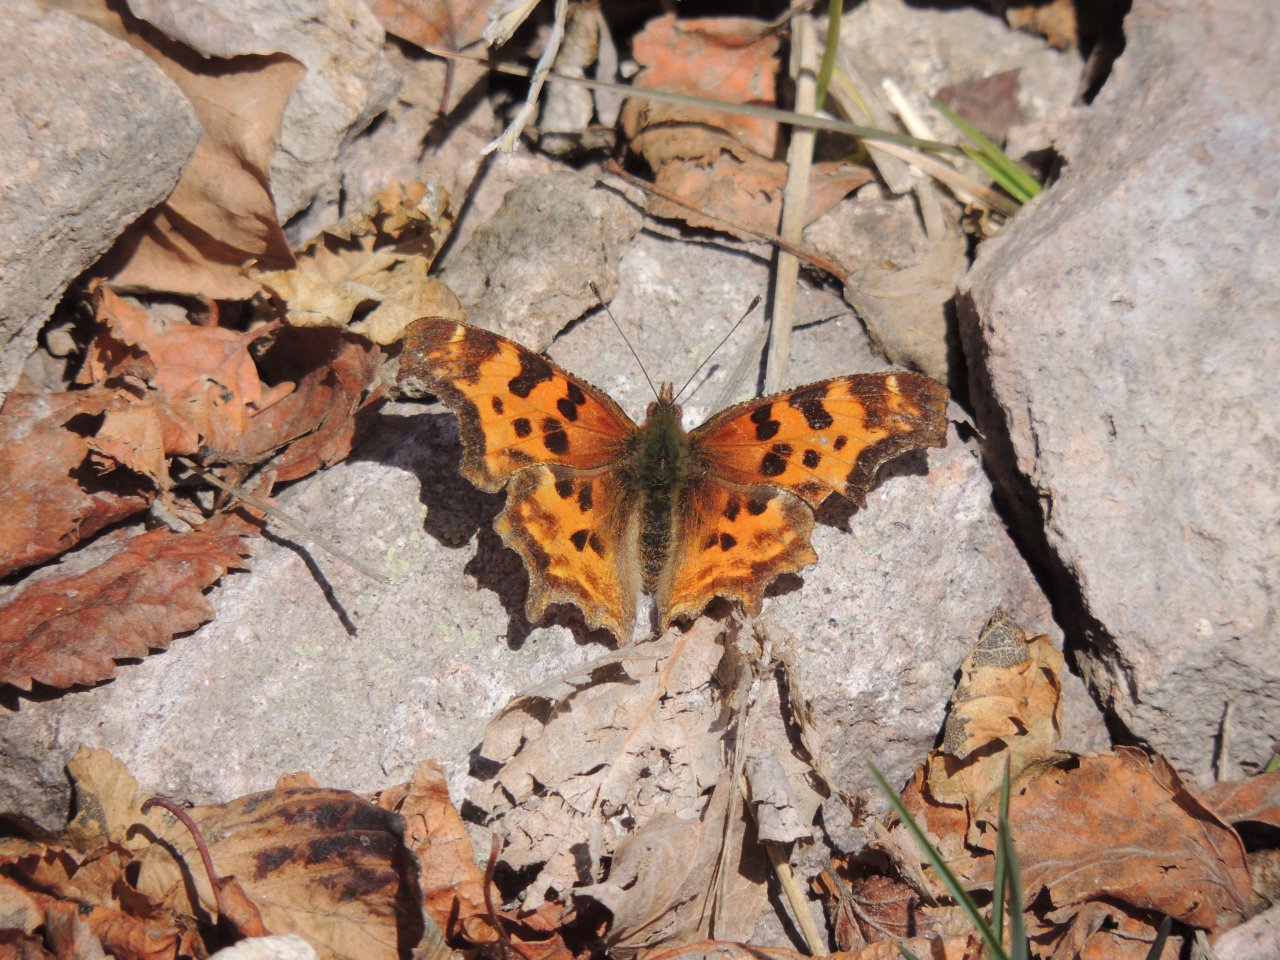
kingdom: Animalia
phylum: Arthropoda
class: Insecta
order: Lepidoptera
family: Nymphalidae
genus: Polygonia
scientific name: Polygonia satyrus
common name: Satyr Comma
